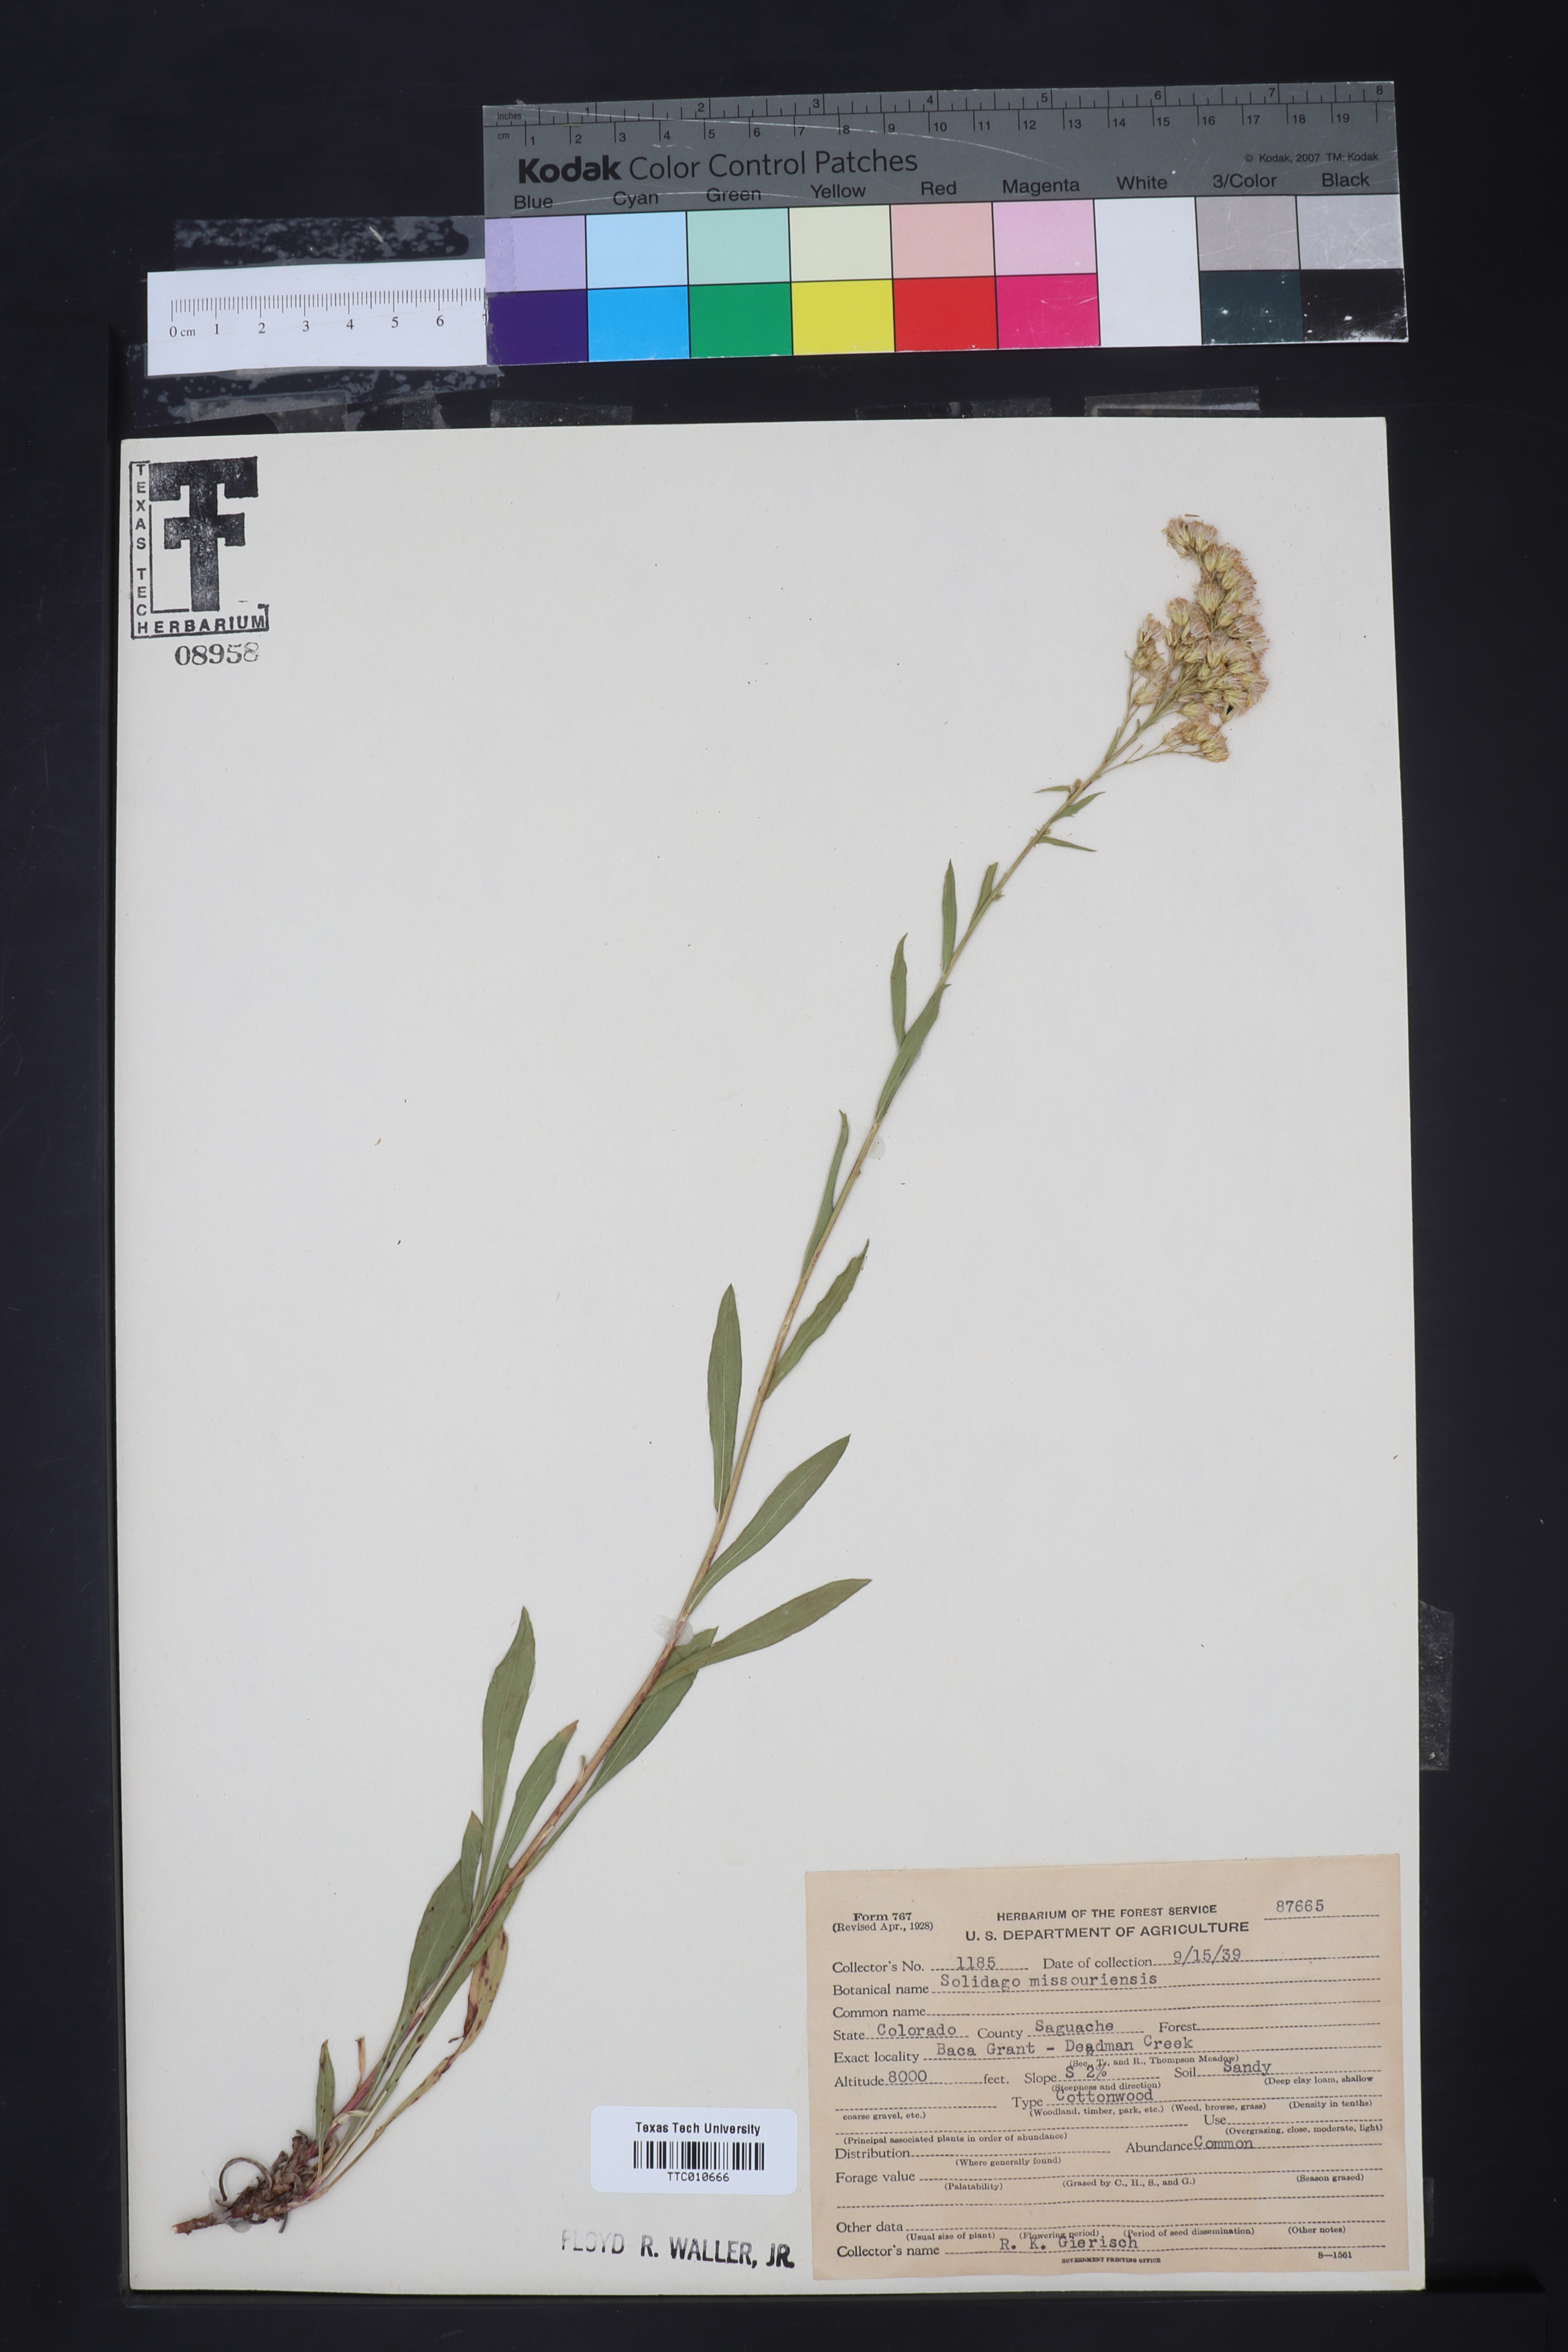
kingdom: Plantae
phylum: Tracheophyta
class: Magnoliopsida
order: Asterales
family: Asteraceae
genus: Solidago
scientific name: Solidago missouriensis
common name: Prairie goldenrod
